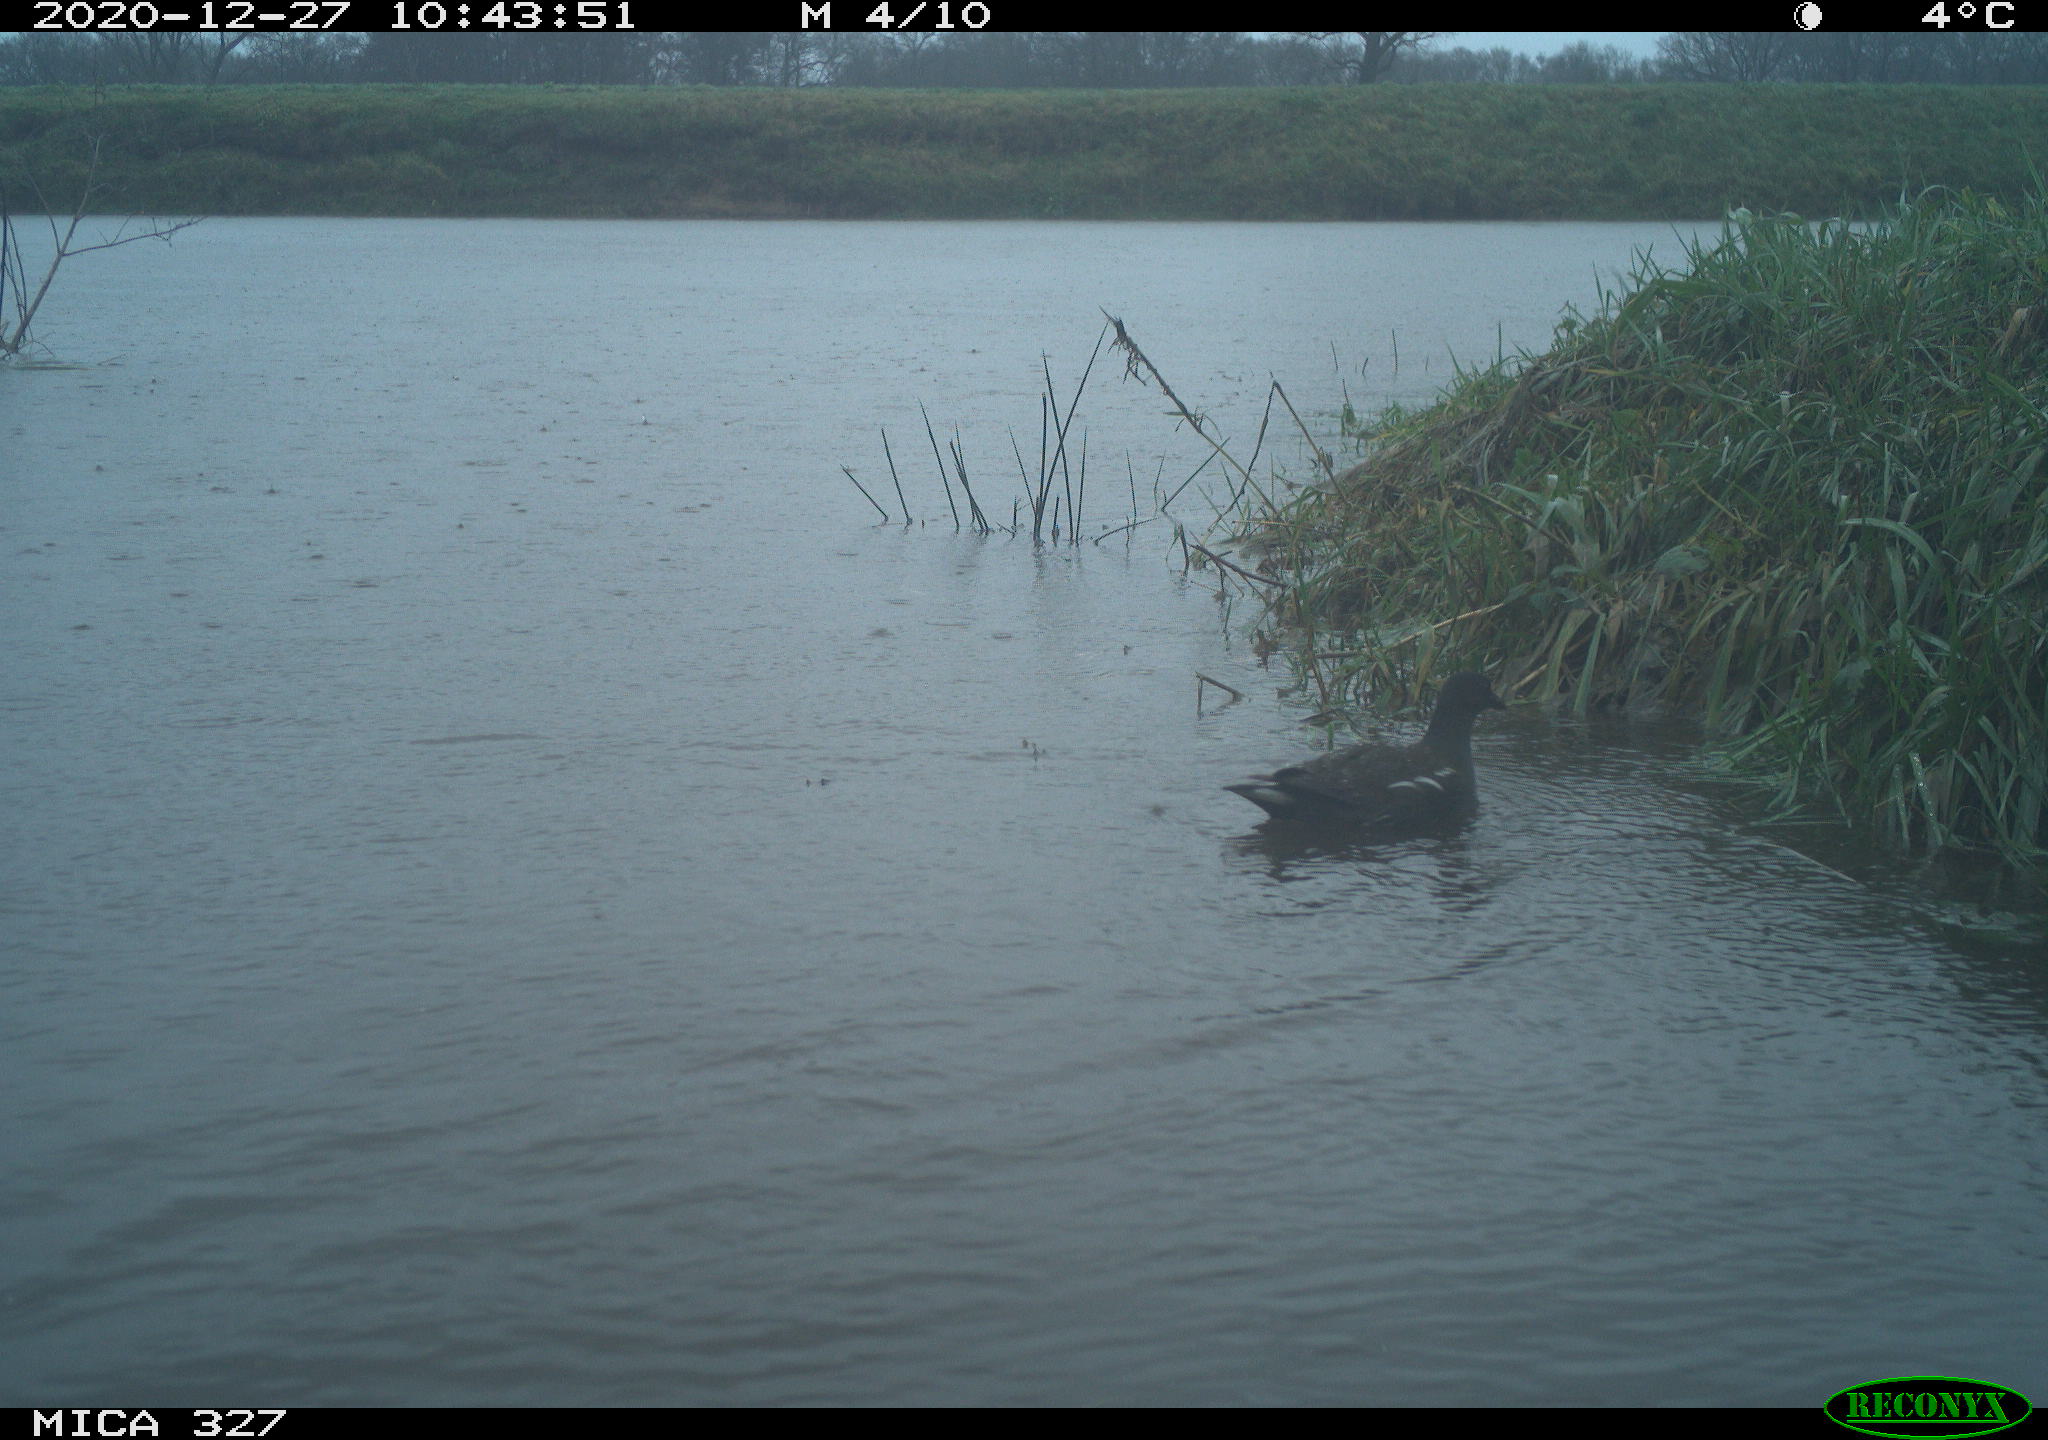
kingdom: Animalia
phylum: Chordata
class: Aves
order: Gruiformes
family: Rallidae
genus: Gallinula
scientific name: Gallinula chloropus
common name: Common moorhen
